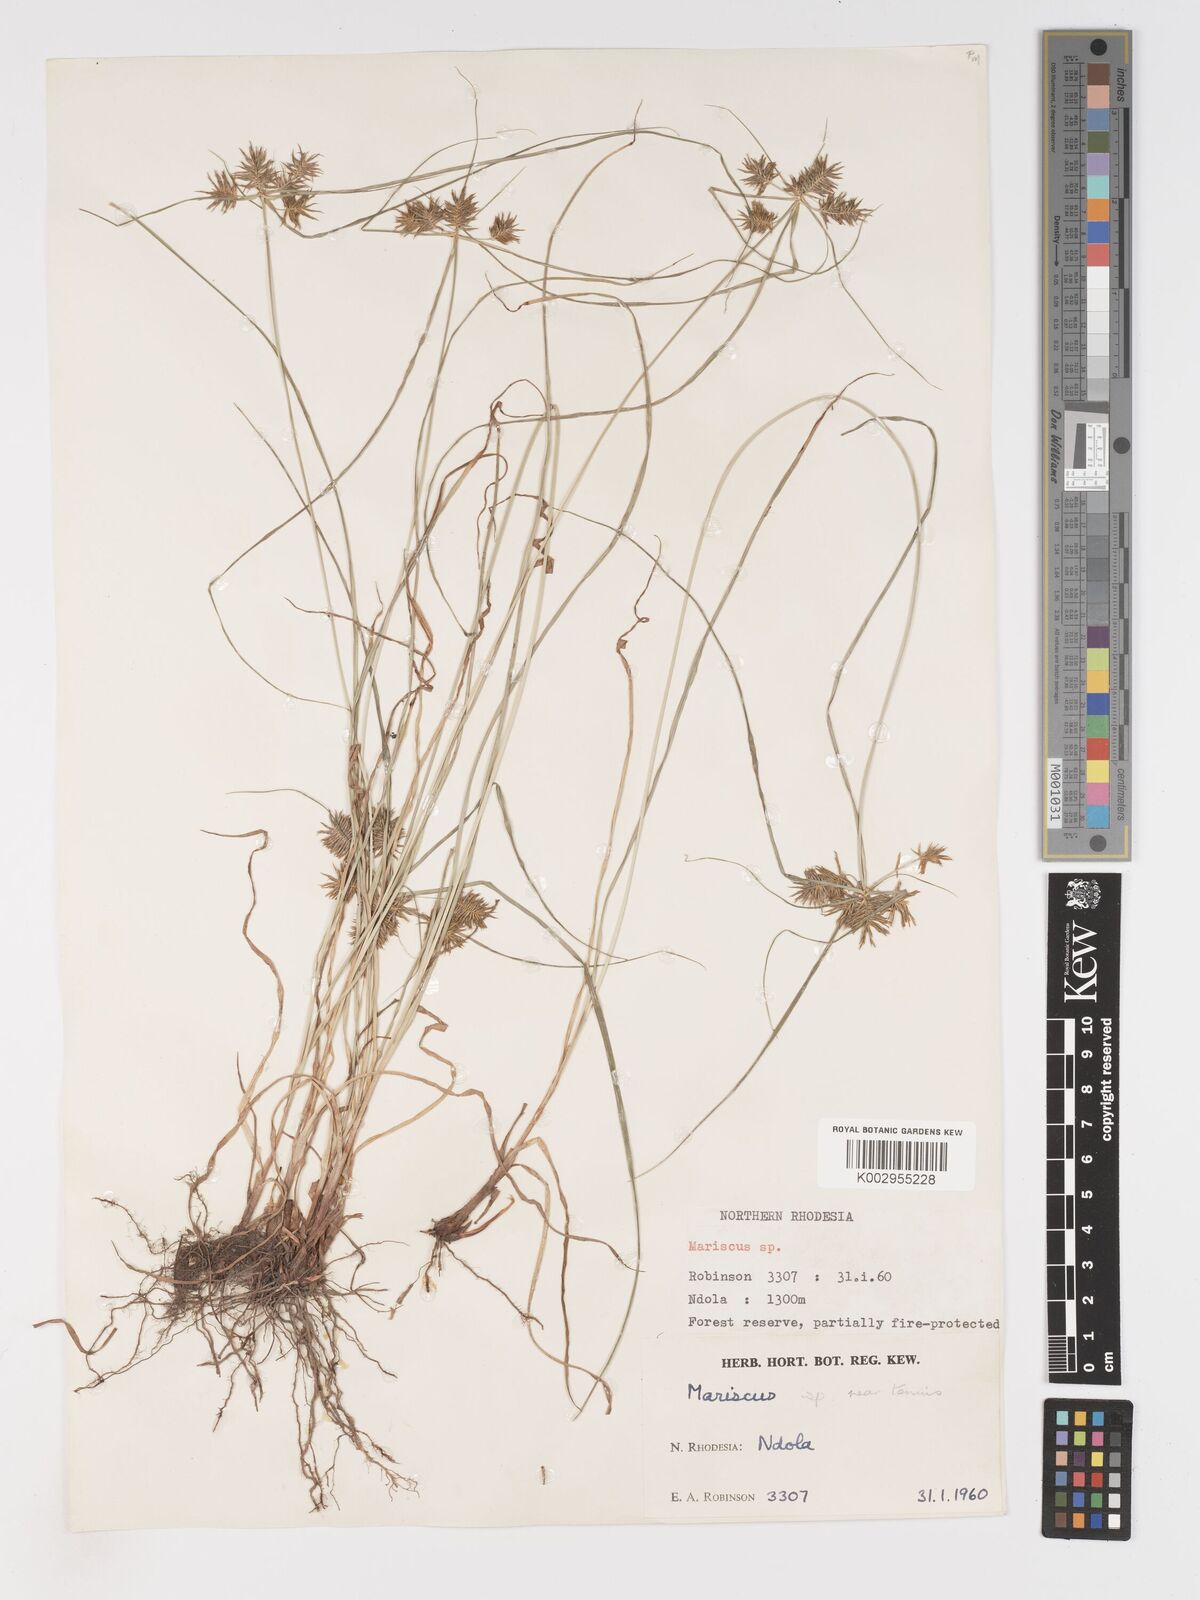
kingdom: Plantae
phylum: Tracheophyta
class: Liliopsida
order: Poales
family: Cyperaceae
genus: Cyperus
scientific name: Cyperus
